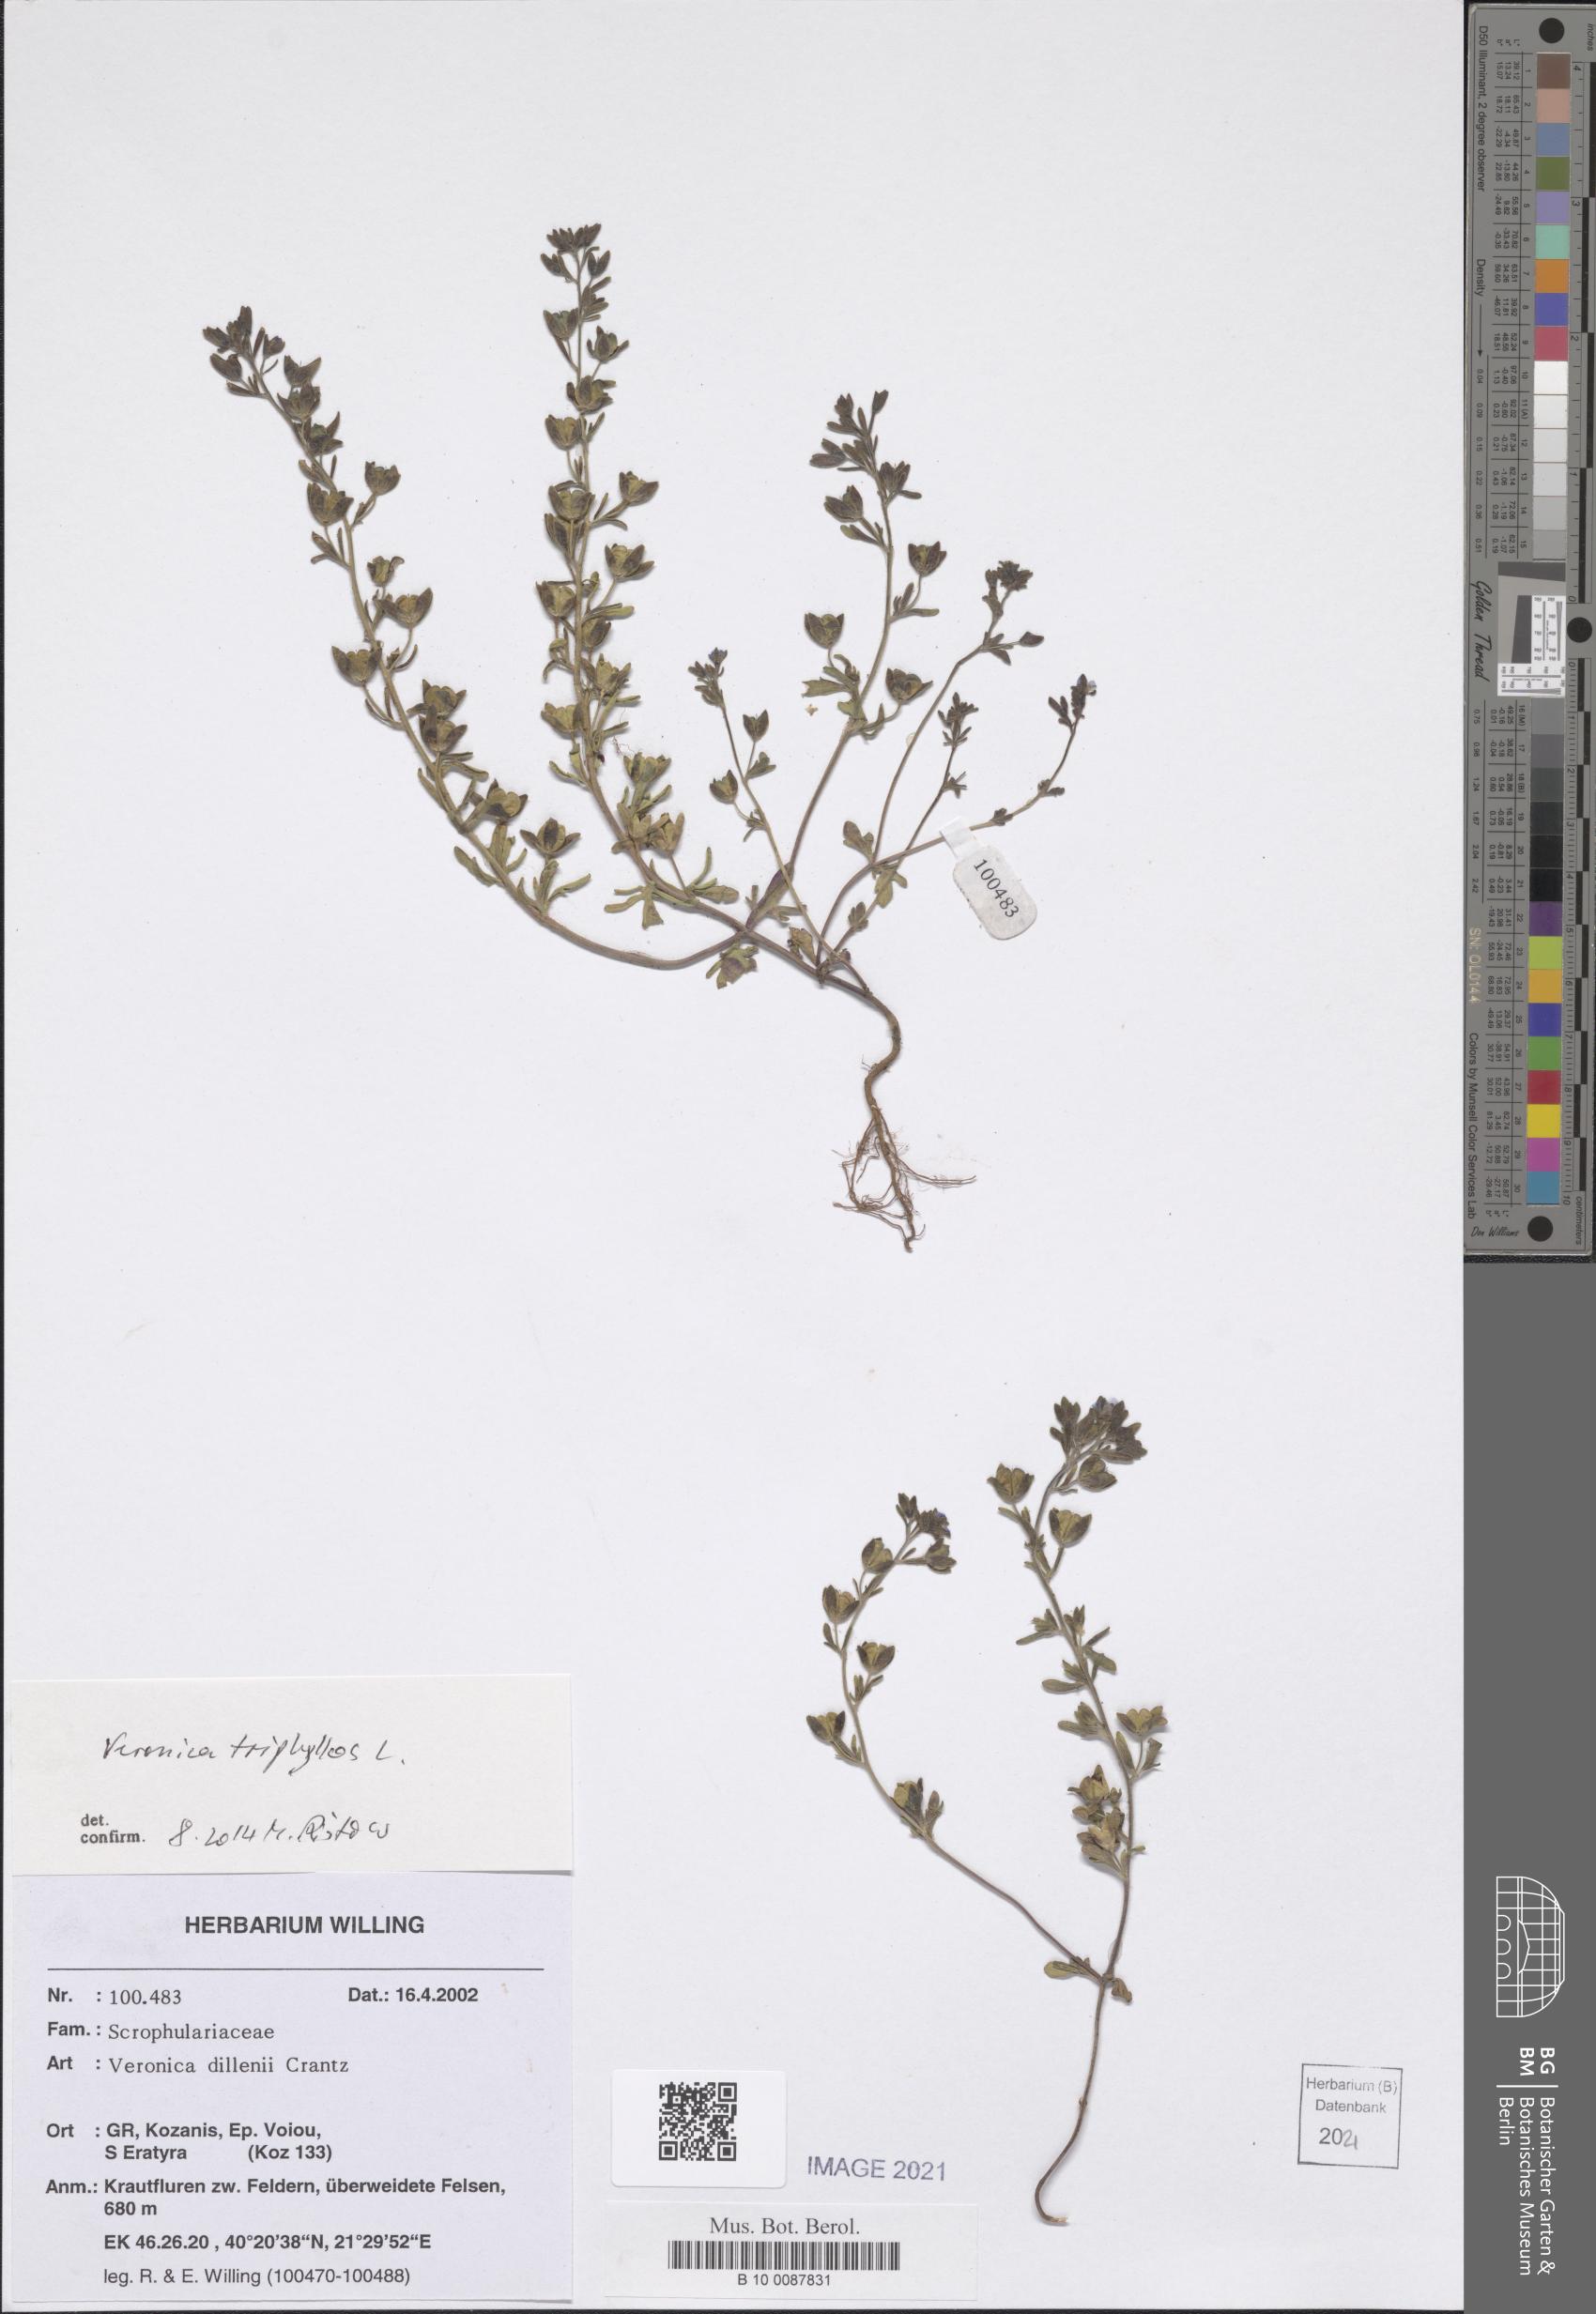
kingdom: Plantae
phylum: Tracheophyta
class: Magnoliopsida
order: Lamiales
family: Plantaginaceae
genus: Veronica
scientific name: Veronica triphyllos
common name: Fingered speedwell
